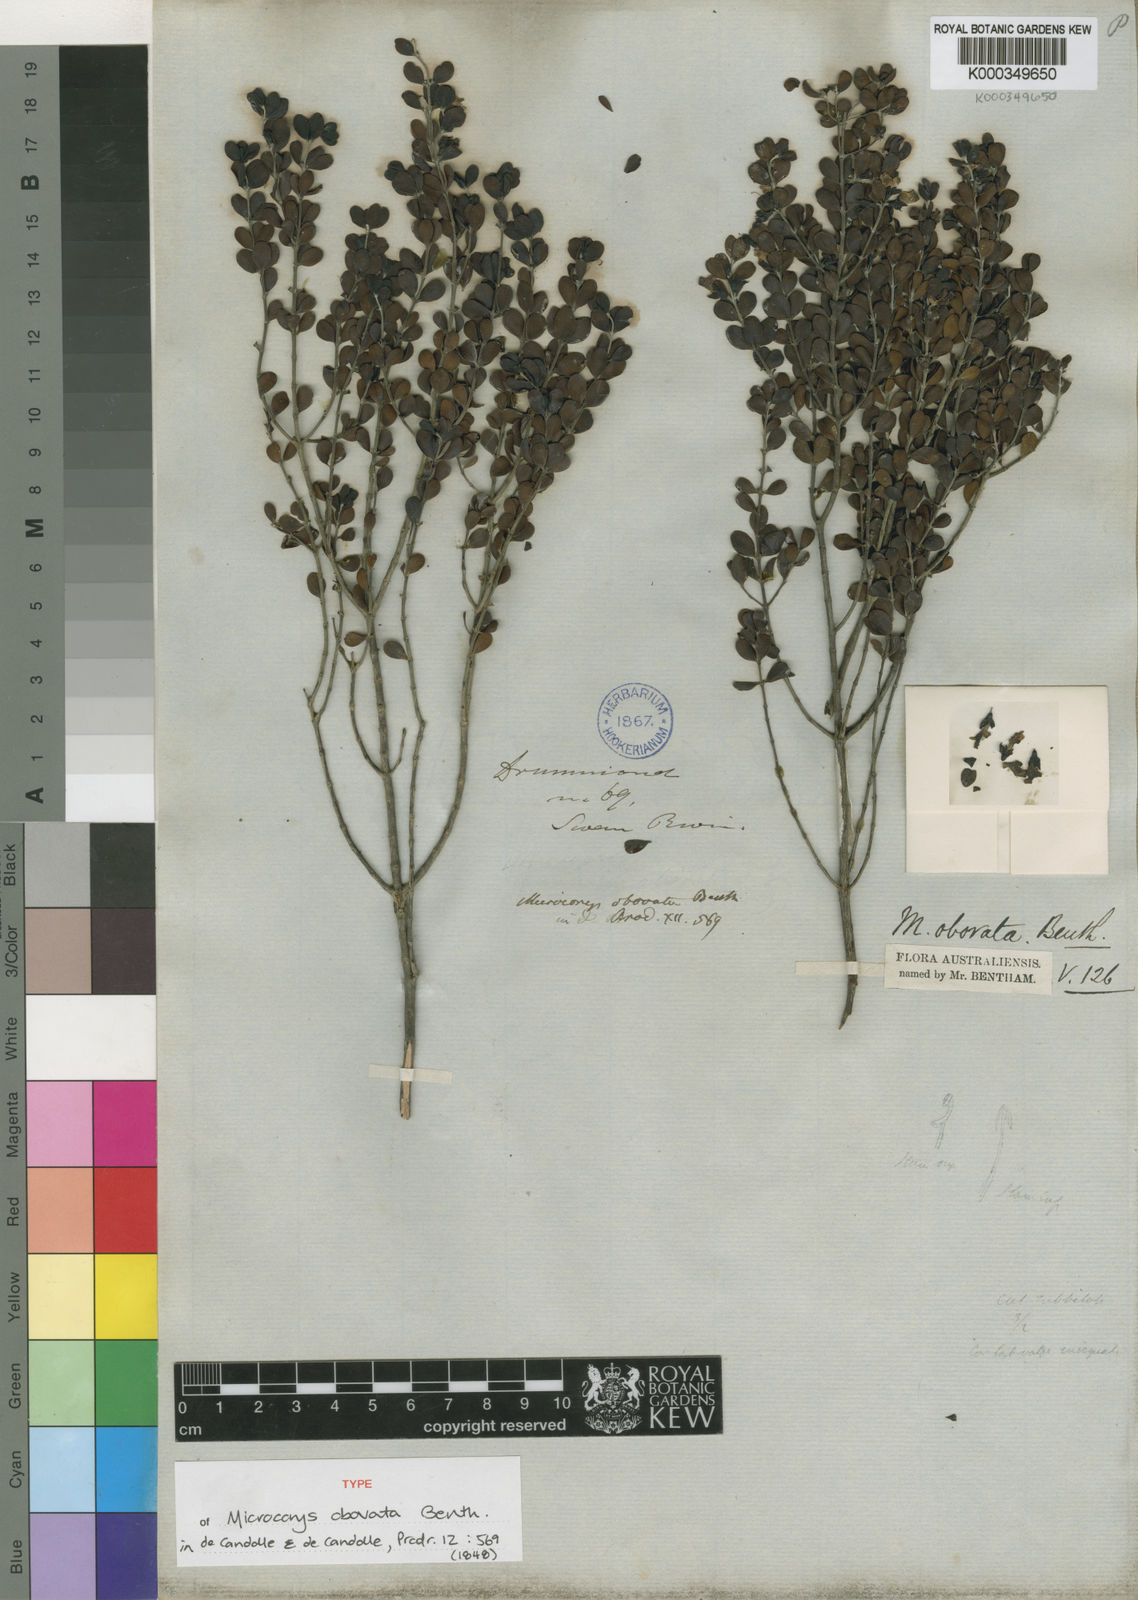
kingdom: Plantae
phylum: Tracheophyta
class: Magnoliopsida
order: Lamiales
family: Lamiaceae
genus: Microcorys
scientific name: Microcorys obovata
